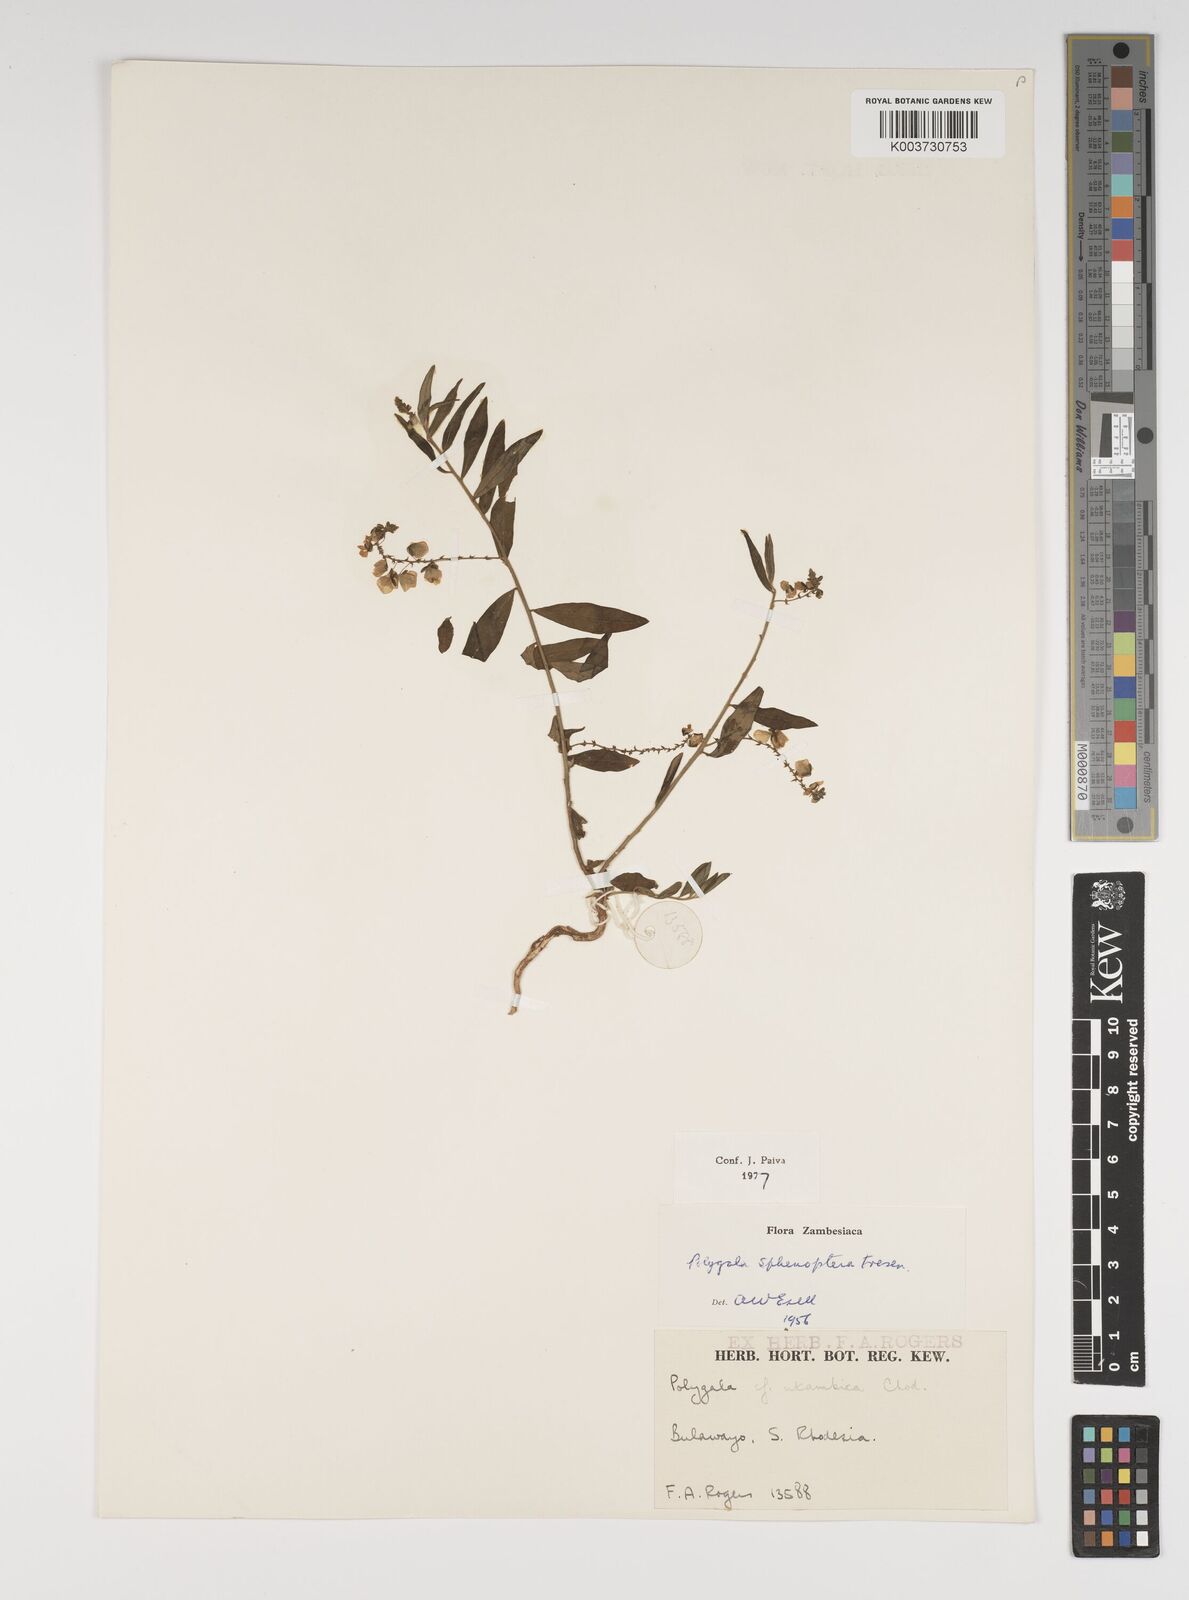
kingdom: Plantae
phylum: Tracheophyta
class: Magnoliopsida
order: Fabales
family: Polygalaceae
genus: Polygala
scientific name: Polygala sphenoptera
